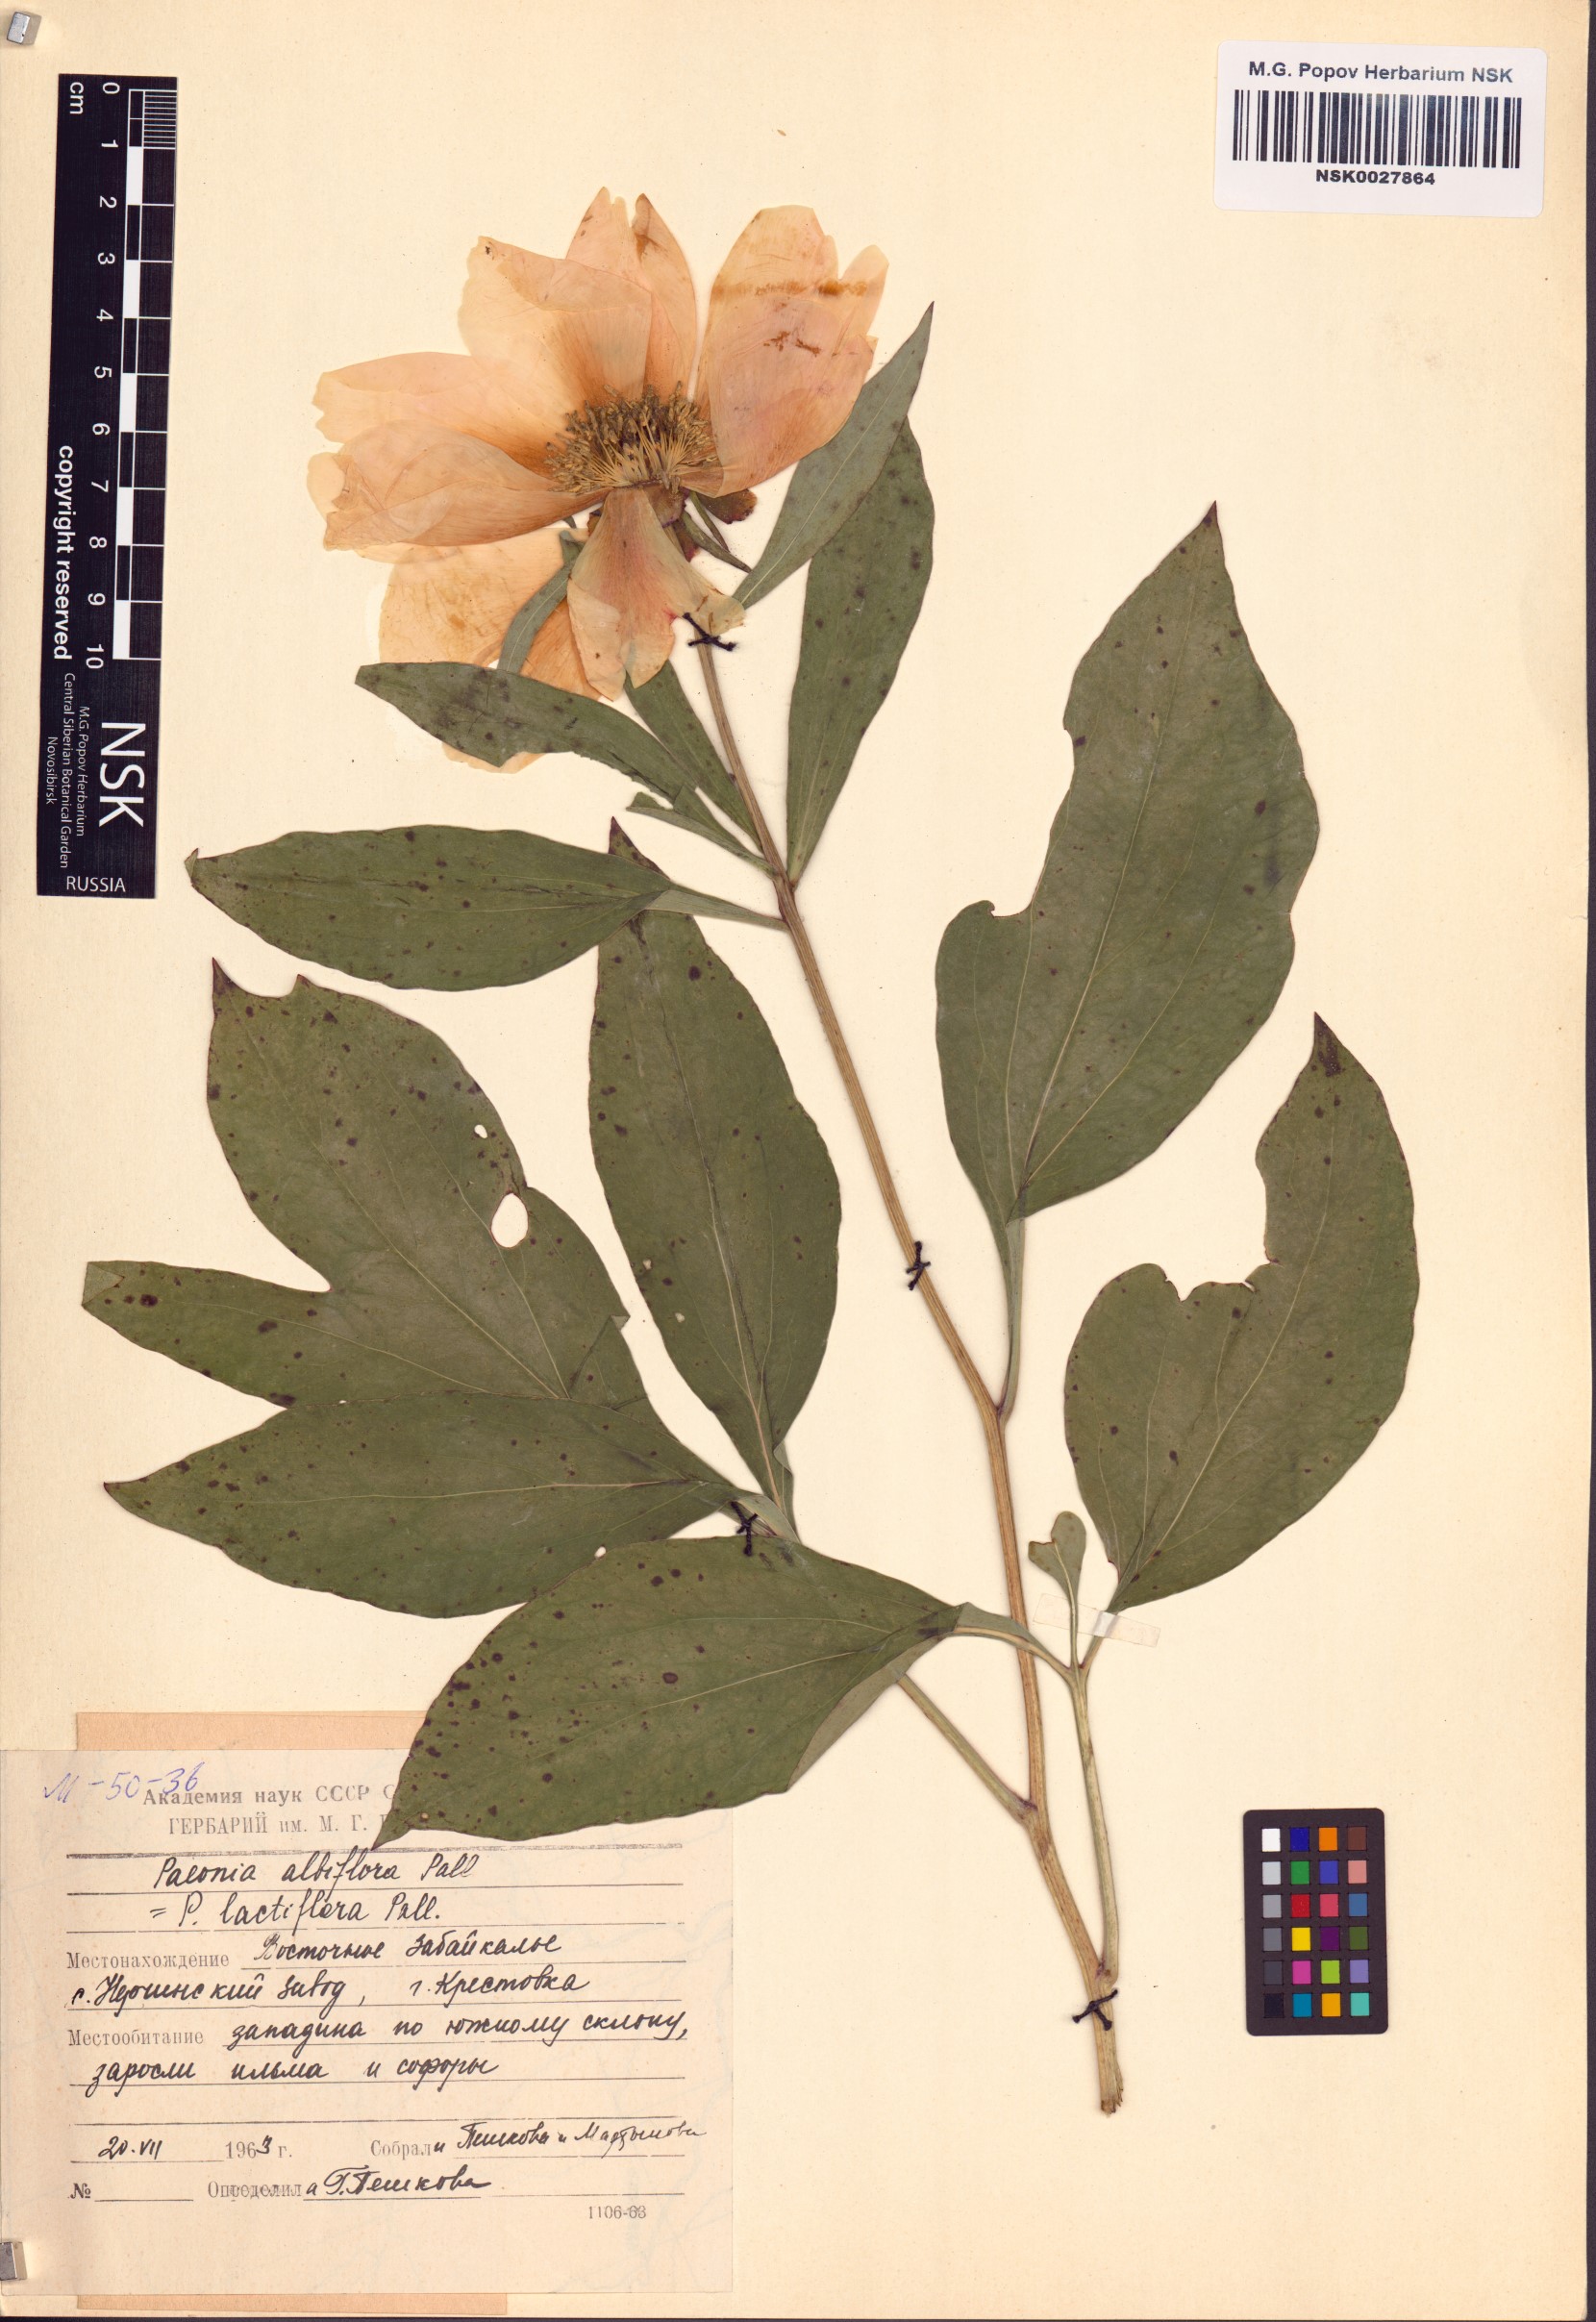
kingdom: Plantae
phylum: Tracheophyta
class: Magnoliopsida
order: Saxifragales
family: Paeoniaceae
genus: Paeonia
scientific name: Paeonia lactiflora
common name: Chinese peony
